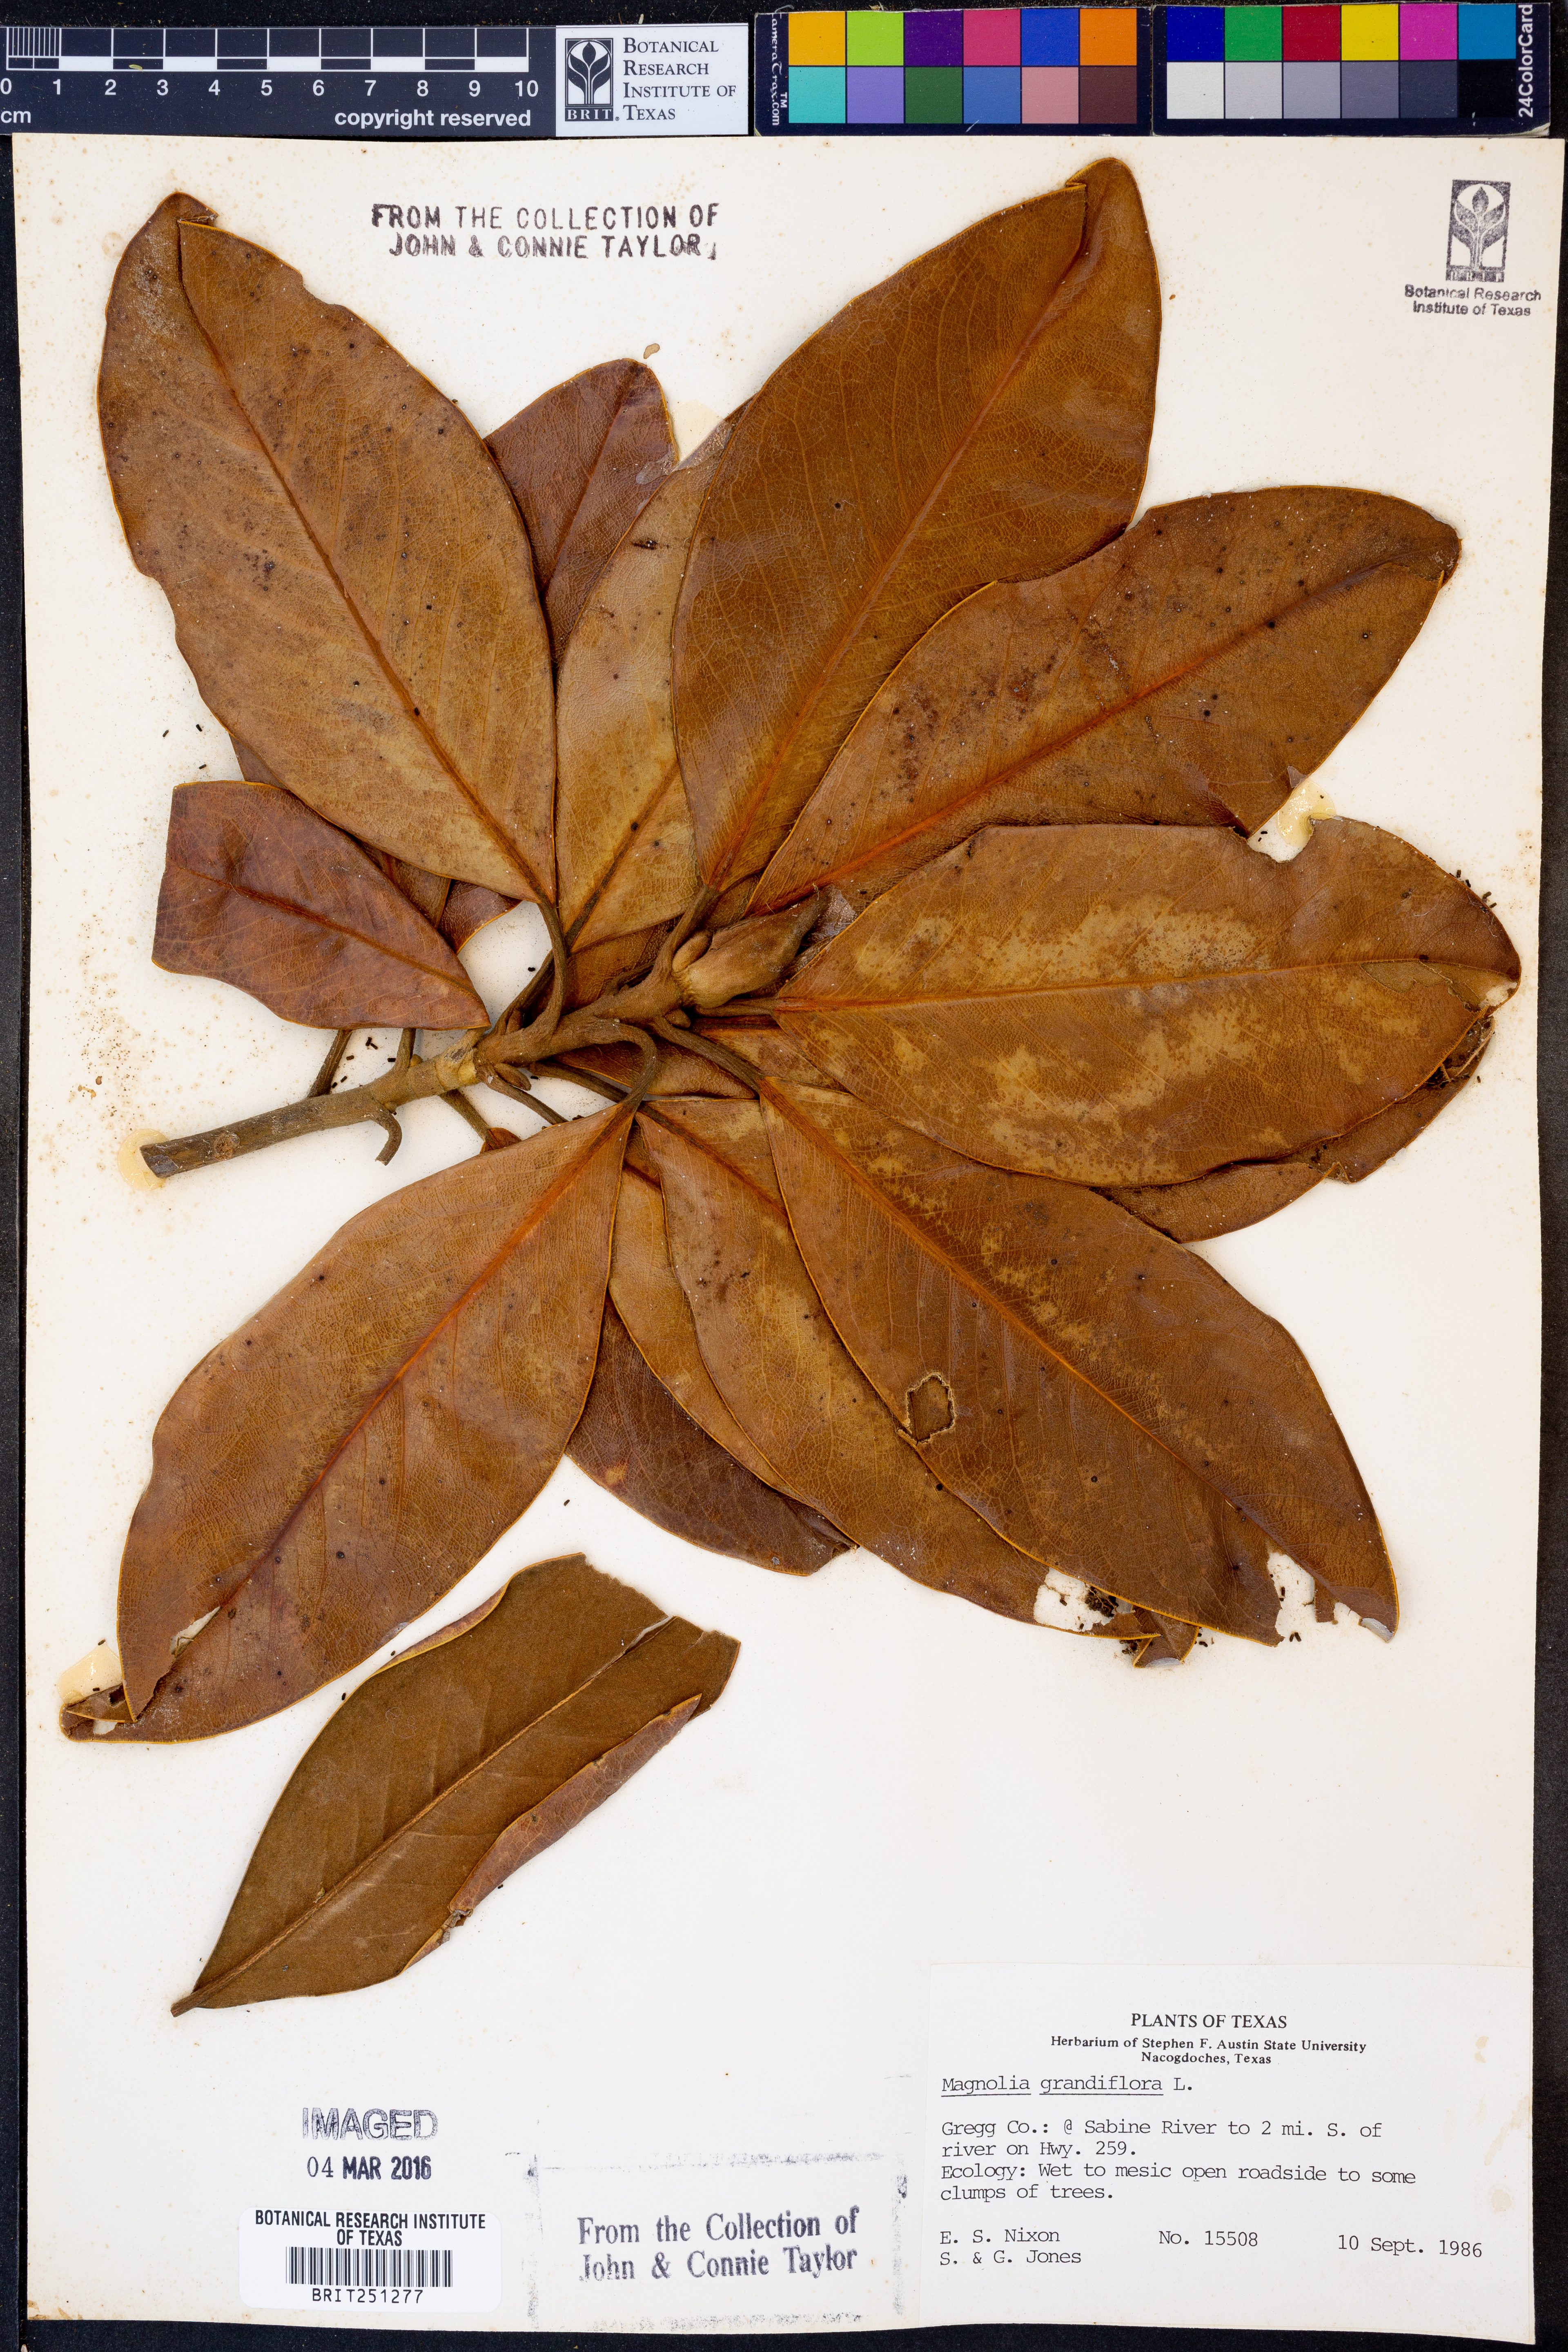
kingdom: Plantae
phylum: Tracheophyta
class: Magnoliopsida
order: Magnoliales
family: Magnoliaceae
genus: Magnolia
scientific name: Magnolia grandiflora
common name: Southern magnolia
